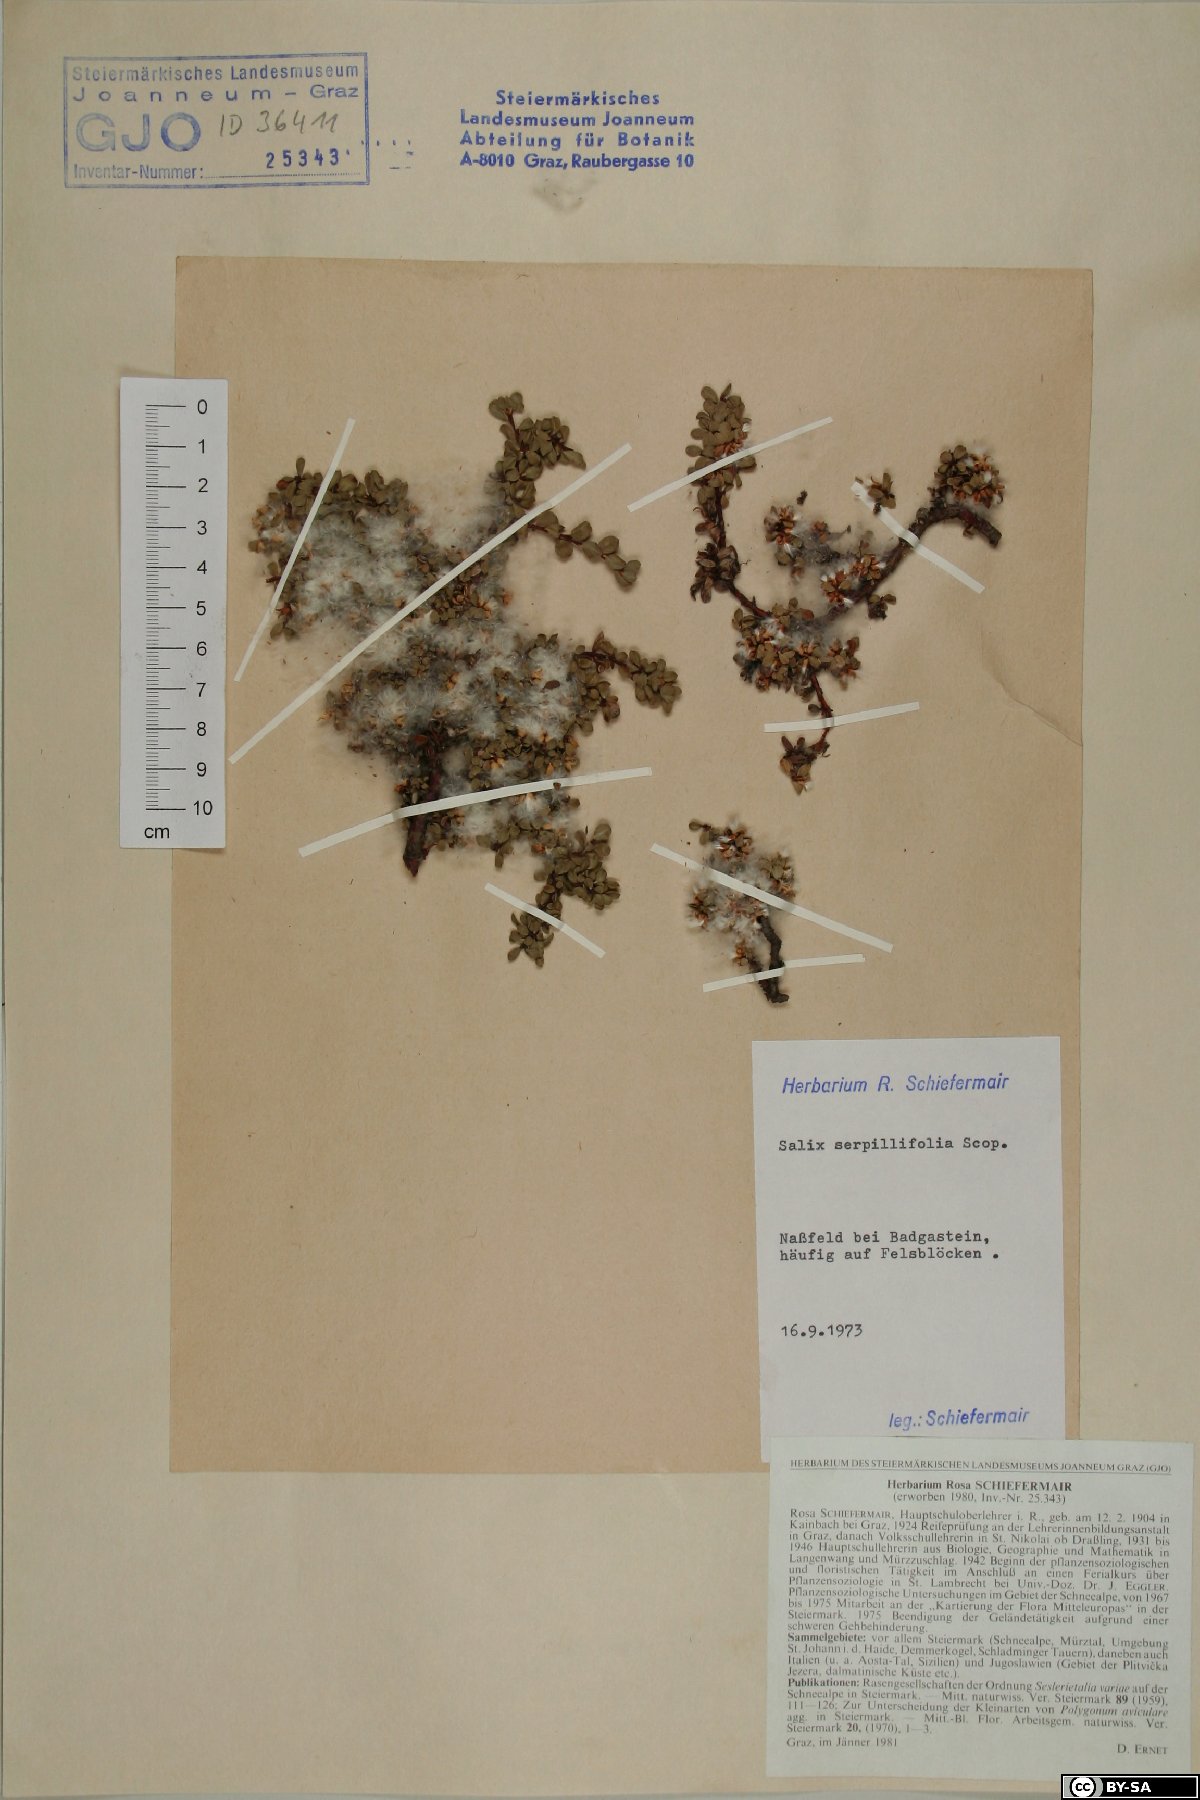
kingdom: Plantae
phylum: Tracheophyta
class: Magnoliopsida
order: Malpighiales
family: Salicaceae
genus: Salix
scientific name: Salix serpillifolia
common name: Thyme-leaf willow
